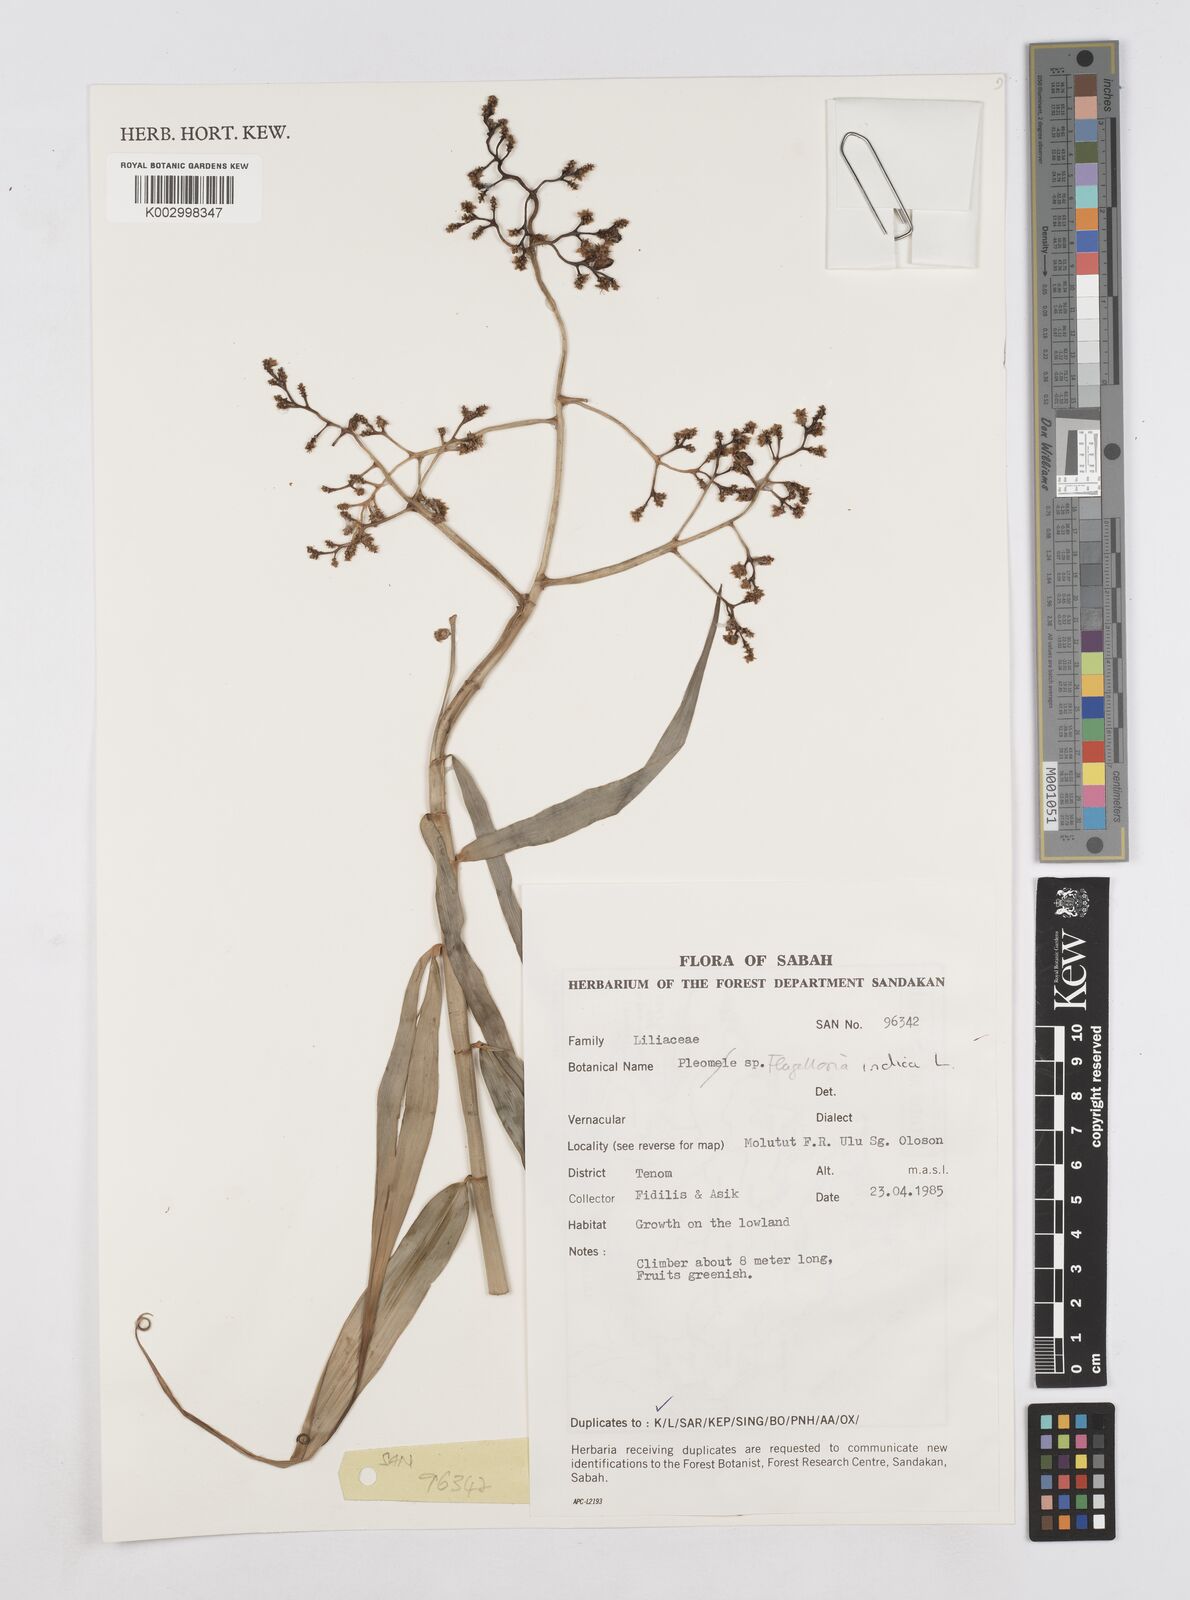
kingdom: Plantae
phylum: Tracheophyta
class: Liliopsida
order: Poales
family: Flagellariaceae
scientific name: Flagellariaceae
